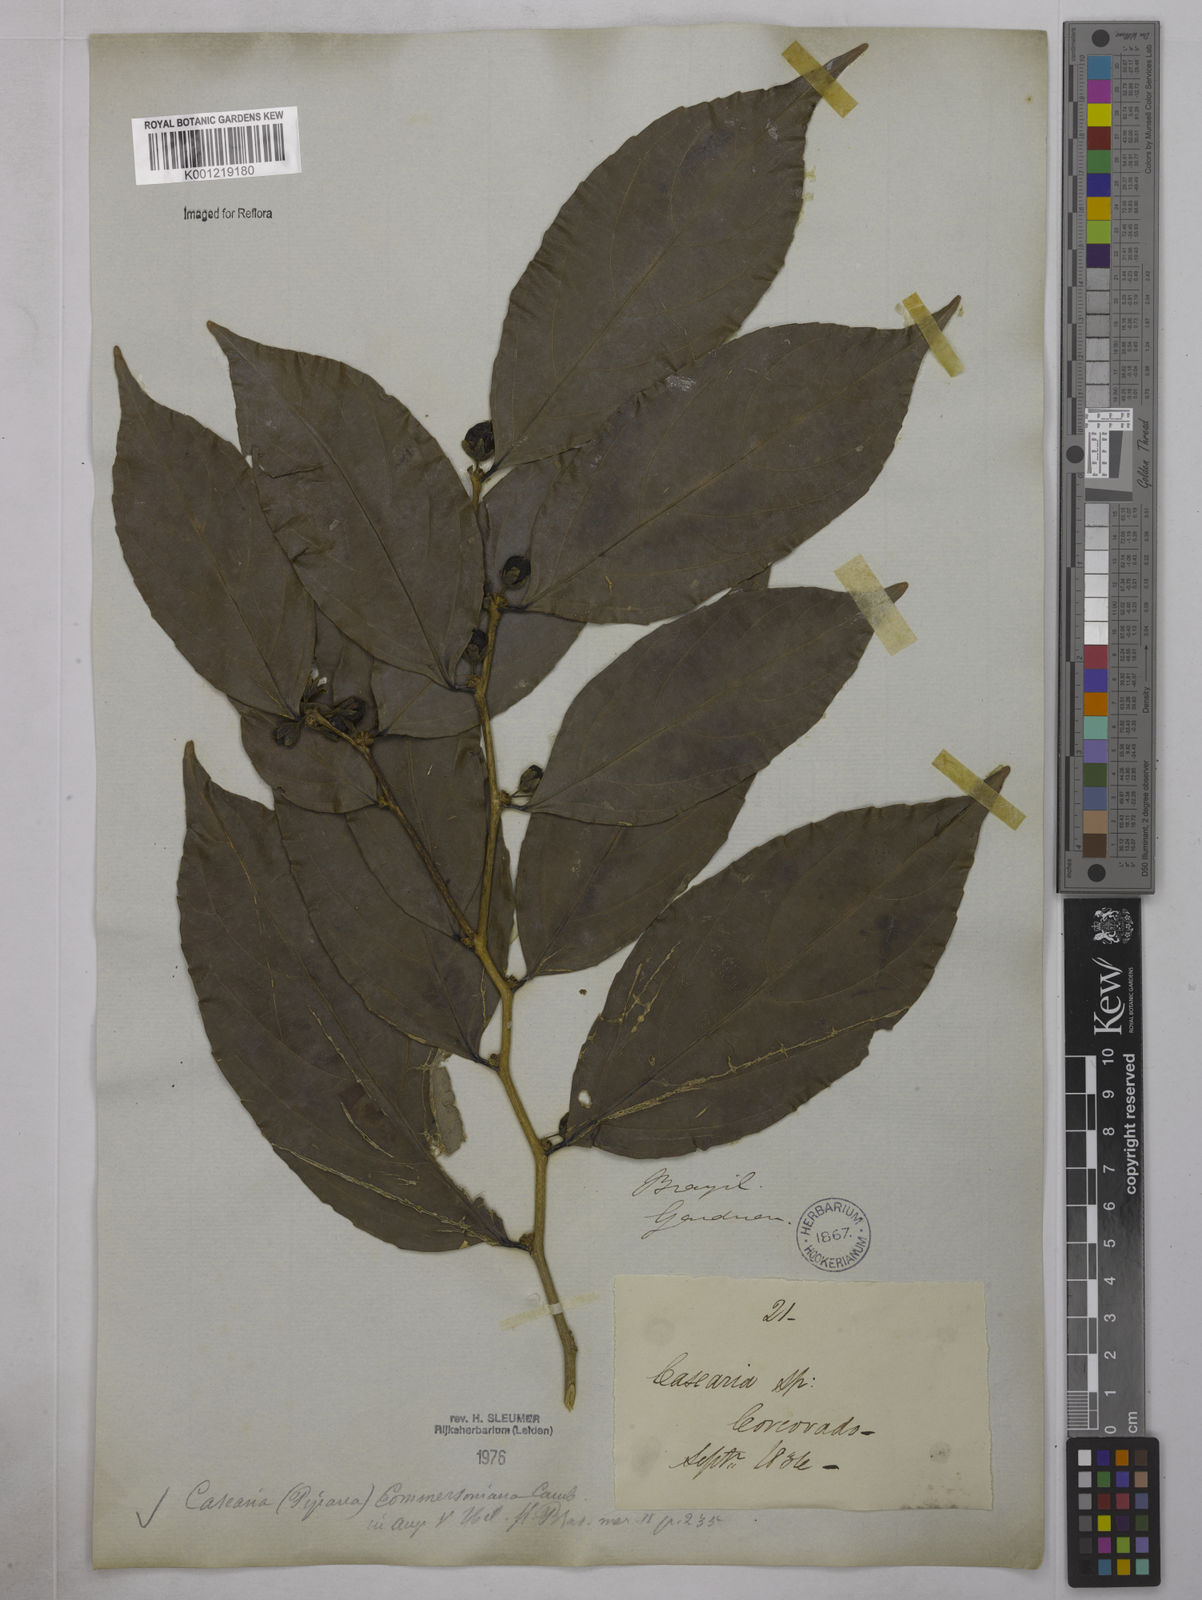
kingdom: Plantae
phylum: Tracheophyta
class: Magnoliopsida
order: Malpighiales
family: Salicaceae
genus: Piparea
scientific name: Piparea dentata
